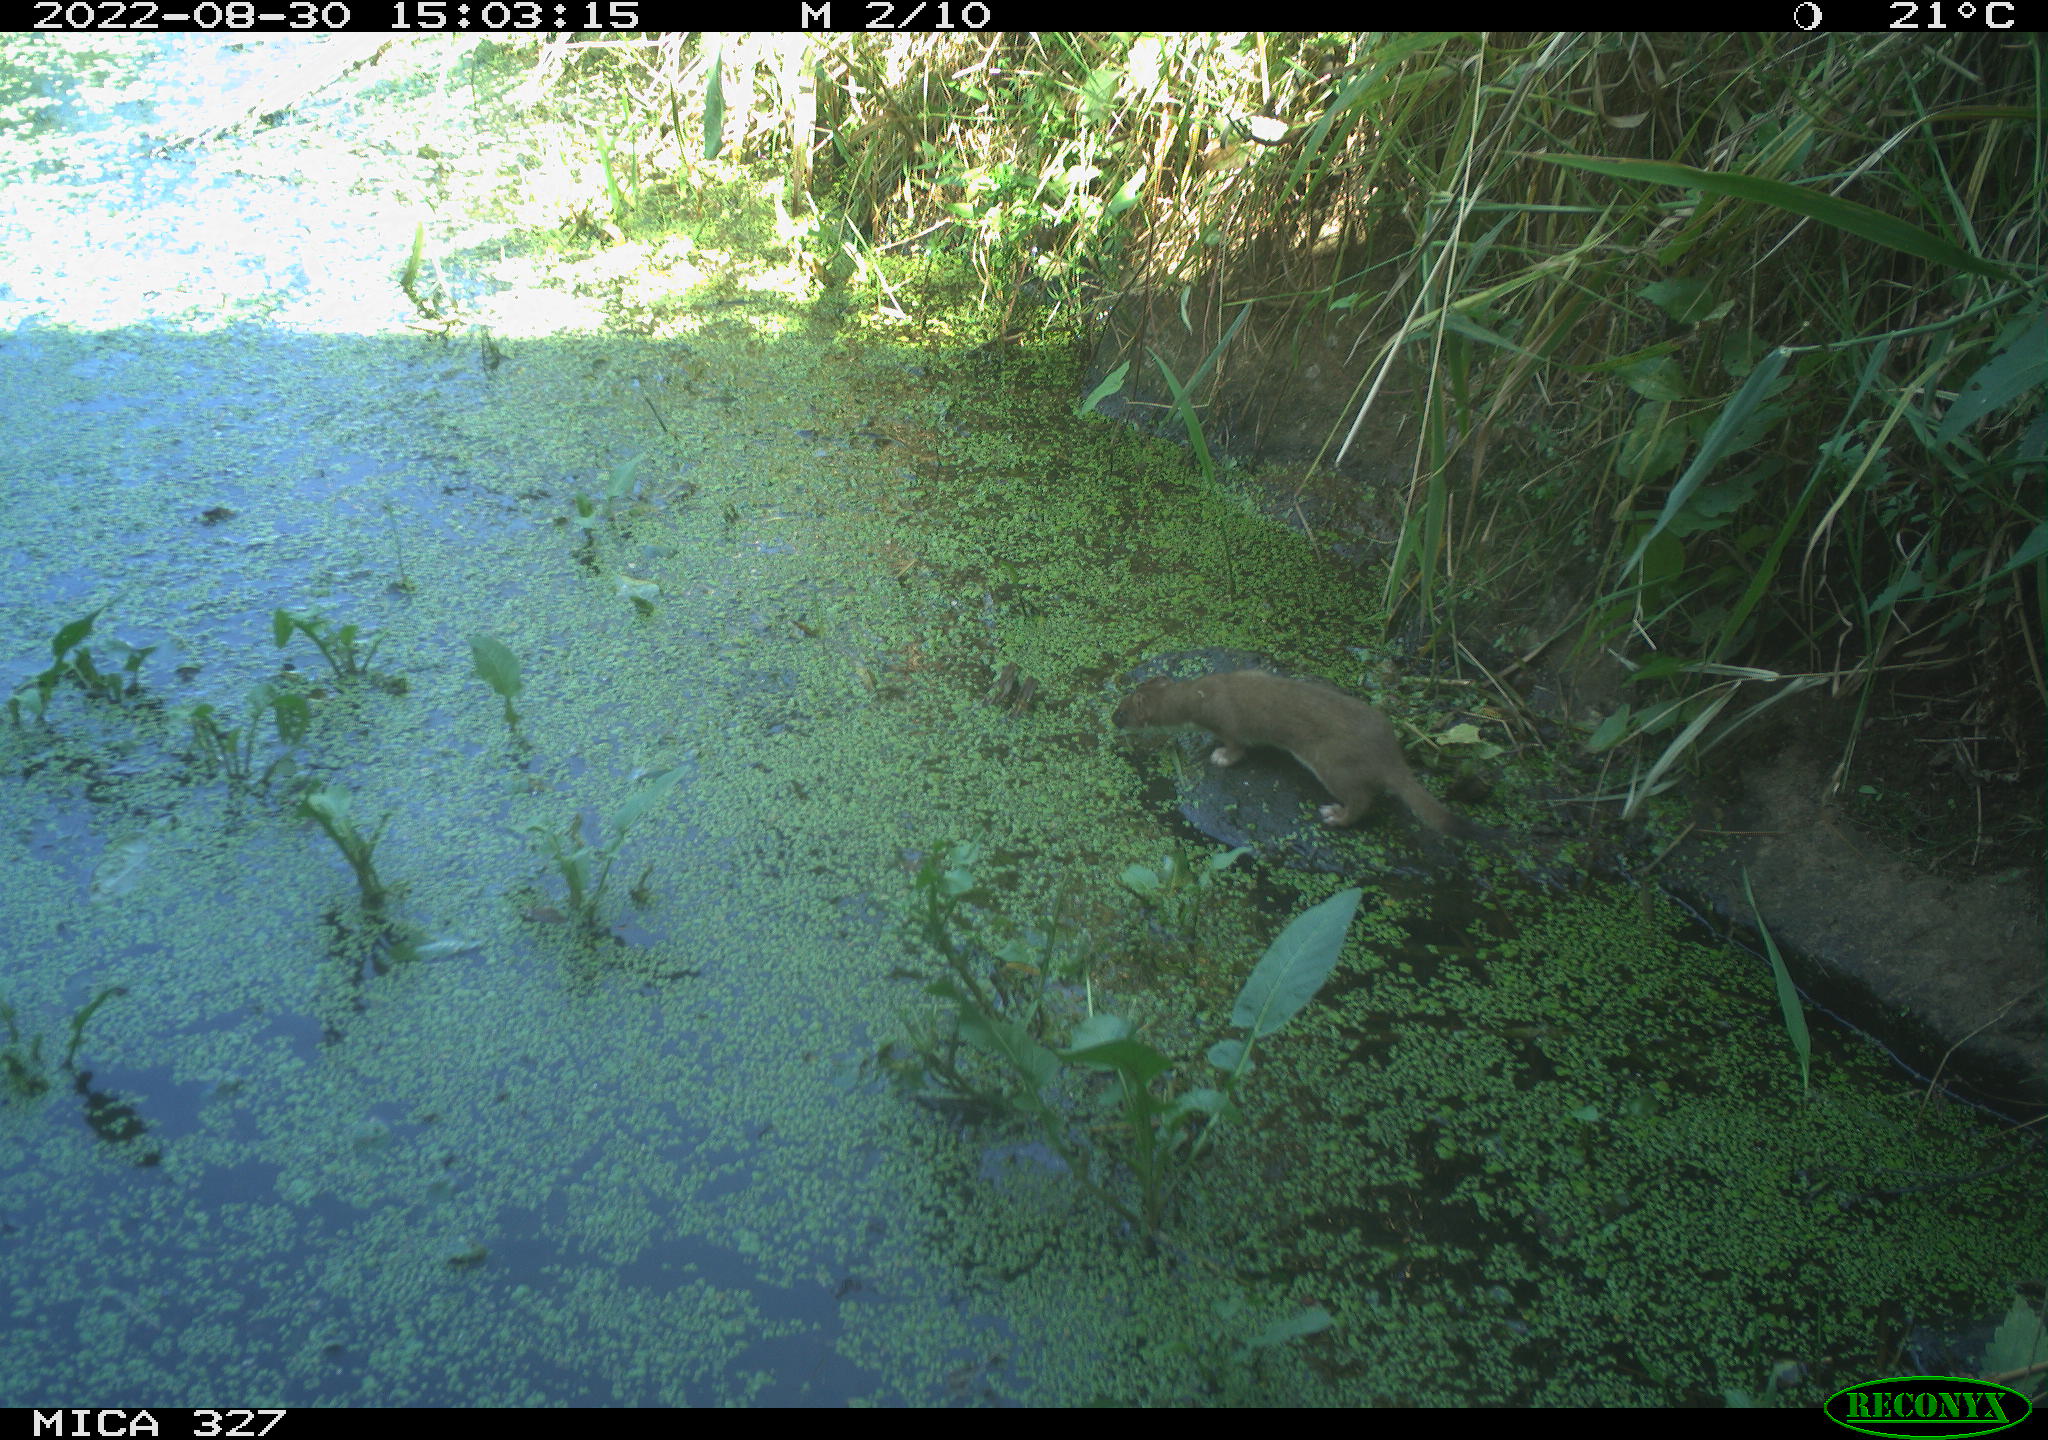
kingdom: Animalia
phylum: Chordata
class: Mammalia
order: Carnivora
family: Mustelidae
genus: Mustela
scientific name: Mustela erminea
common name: Stoat
